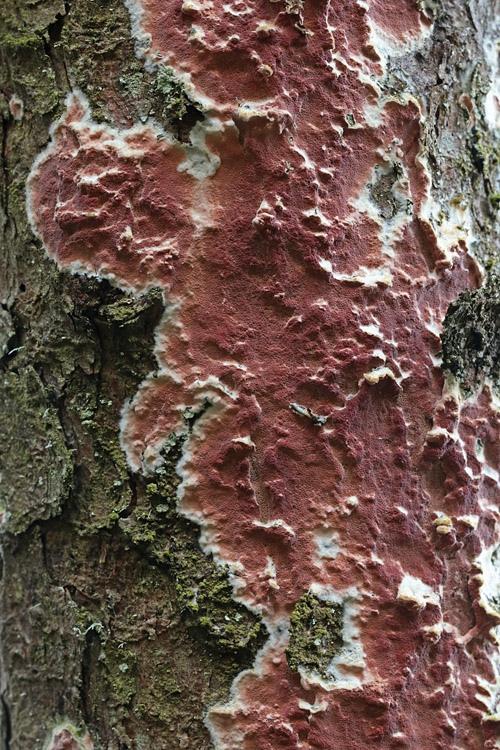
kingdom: Fungi
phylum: Basidiomycota
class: Agaricomycetes
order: Polyporales
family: Irpicaceae
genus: Meruliopsis
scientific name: Meruliopsis taxicola
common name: purpurbrun foldporesvamp
